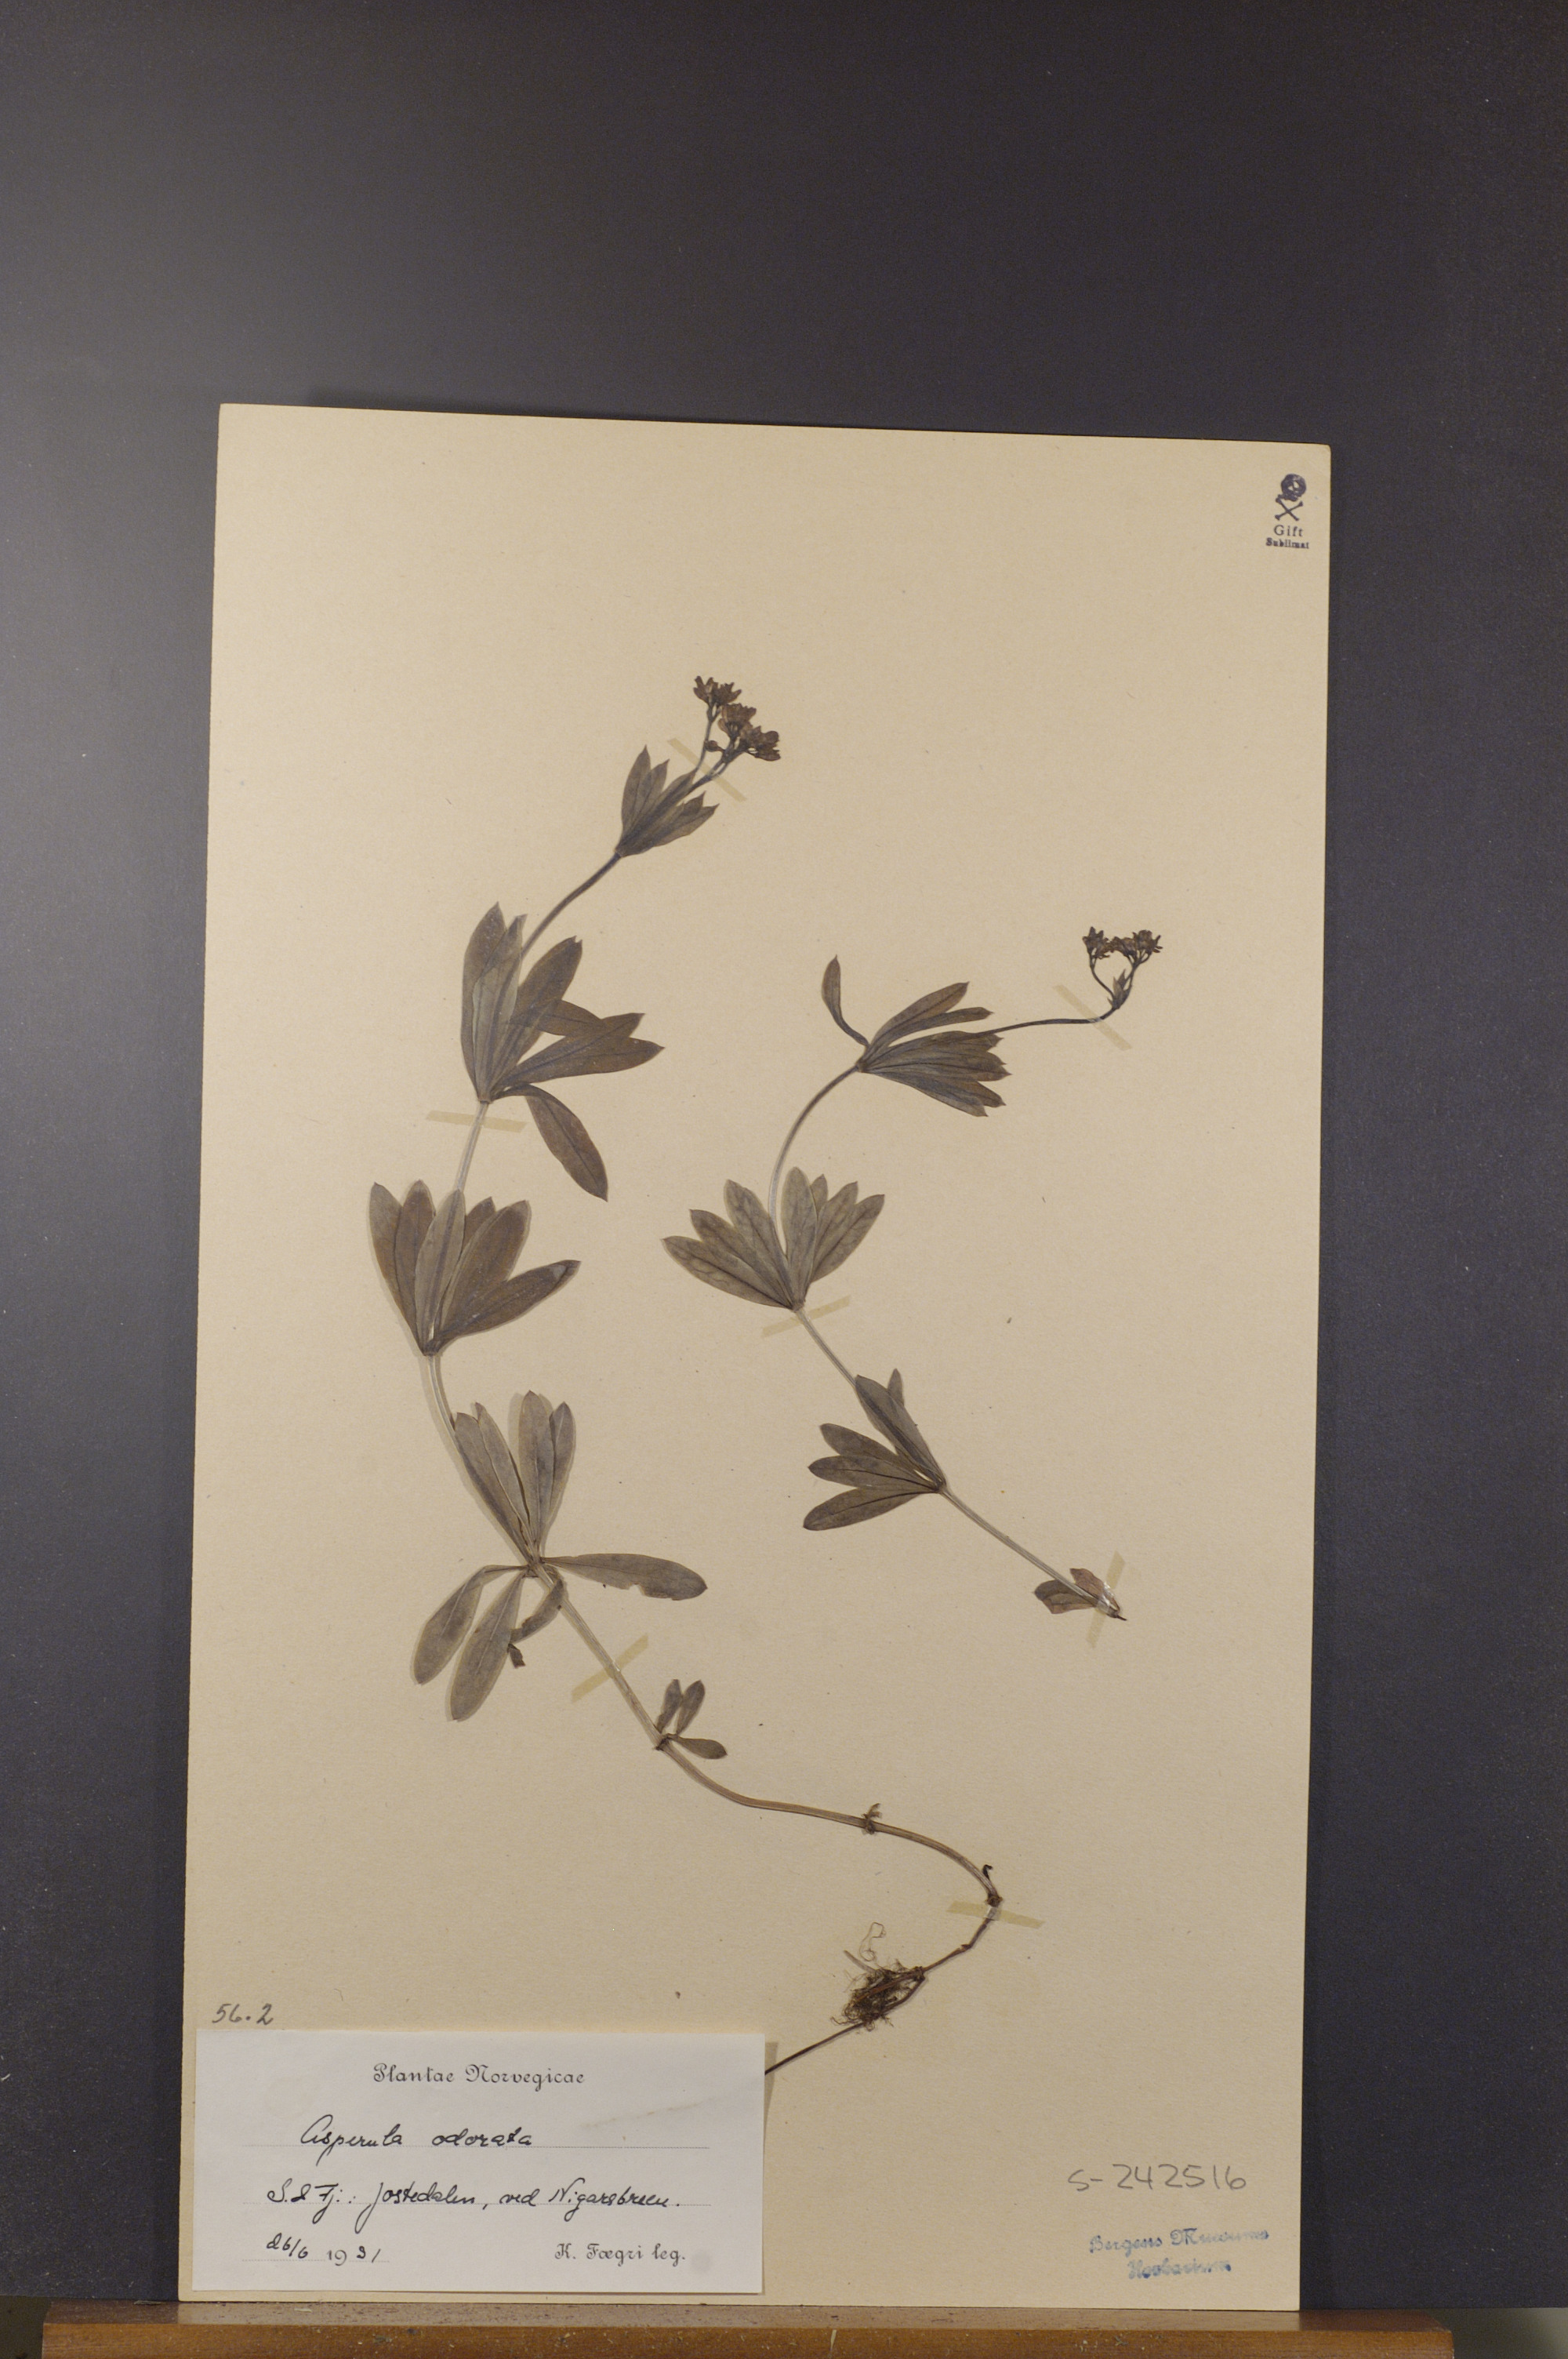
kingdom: Plantae
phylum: Tracheophyta
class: Magnoliopsida
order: Gentianales
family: Rubiaceae
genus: Galium
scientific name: Galium odoratum
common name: Sweet woodruff
